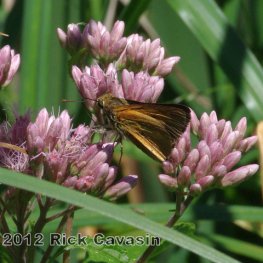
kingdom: Animalia
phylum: Arthropoda
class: Insecta
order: Lepidoptera
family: Hesperiidae
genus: Euphyes
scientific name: Euphyes dion
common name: Dion Skipper
